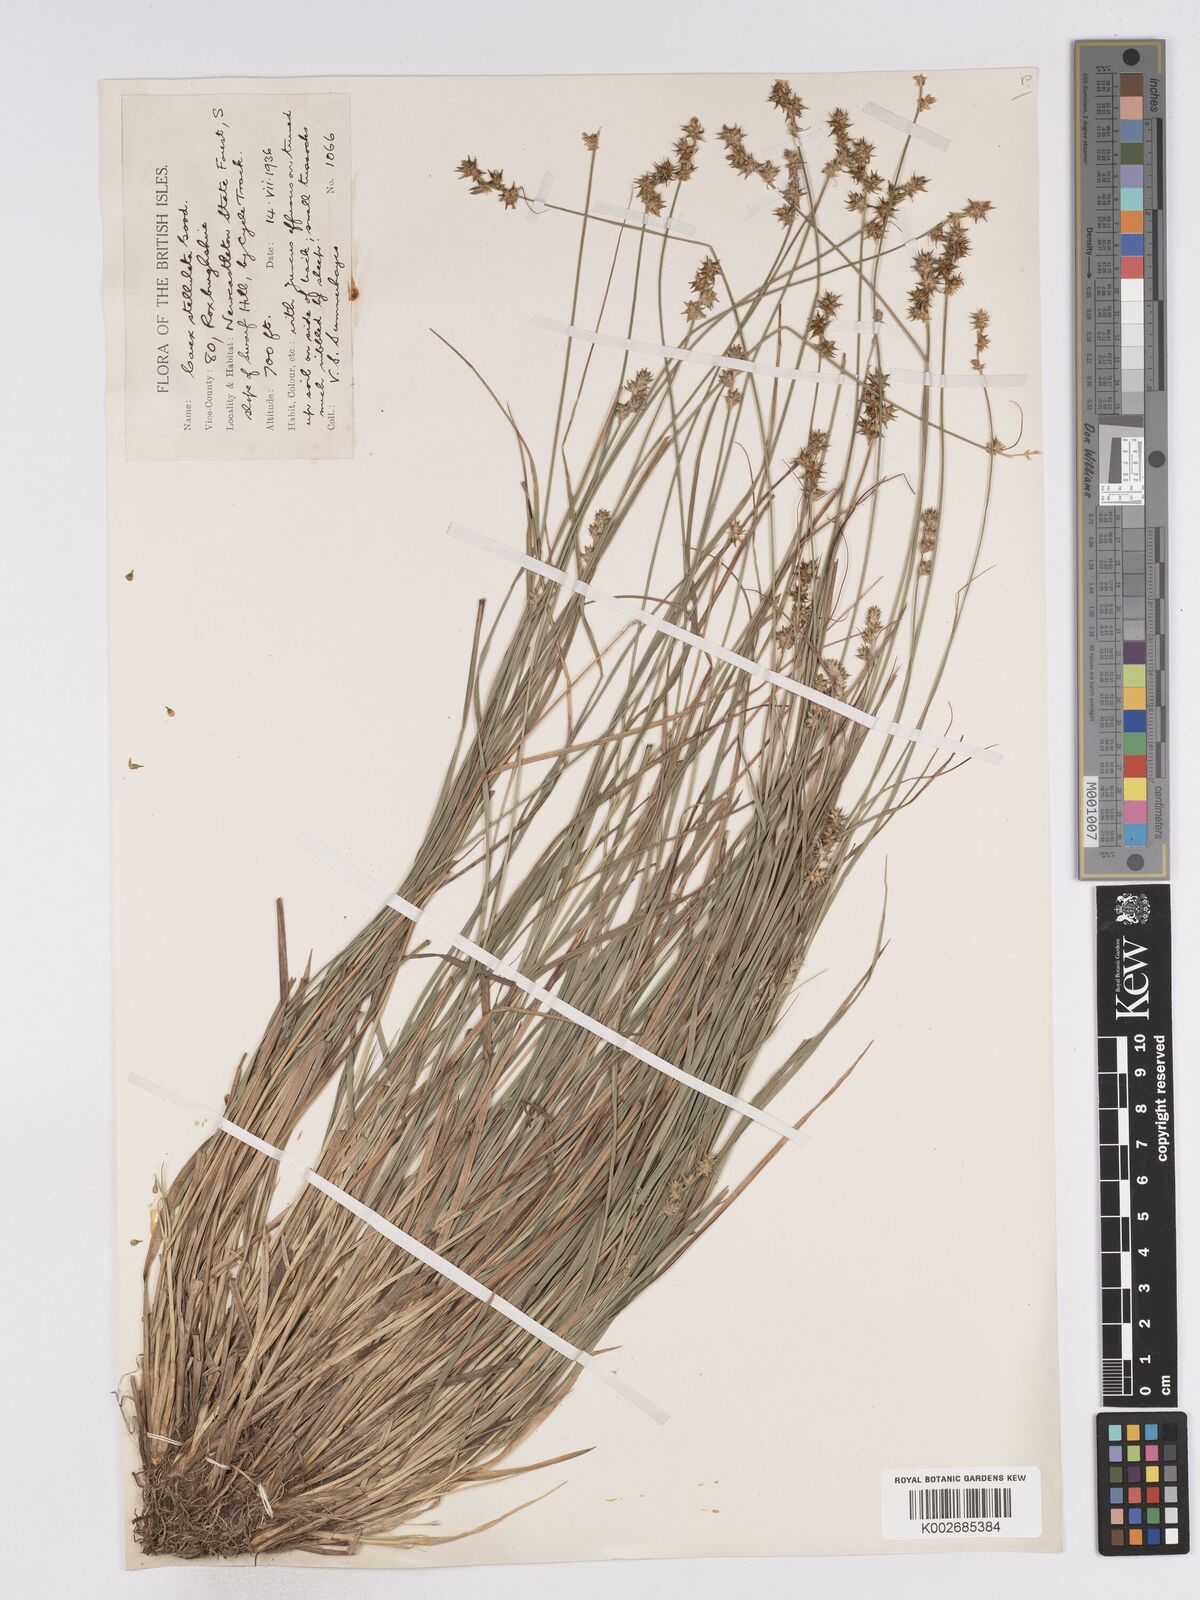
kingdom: Plantae
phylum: Tracheophyta
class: Liliopsida
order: Poales
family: Cyperaceae
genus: Carex
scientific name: Carex echinata
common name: Star sedge
